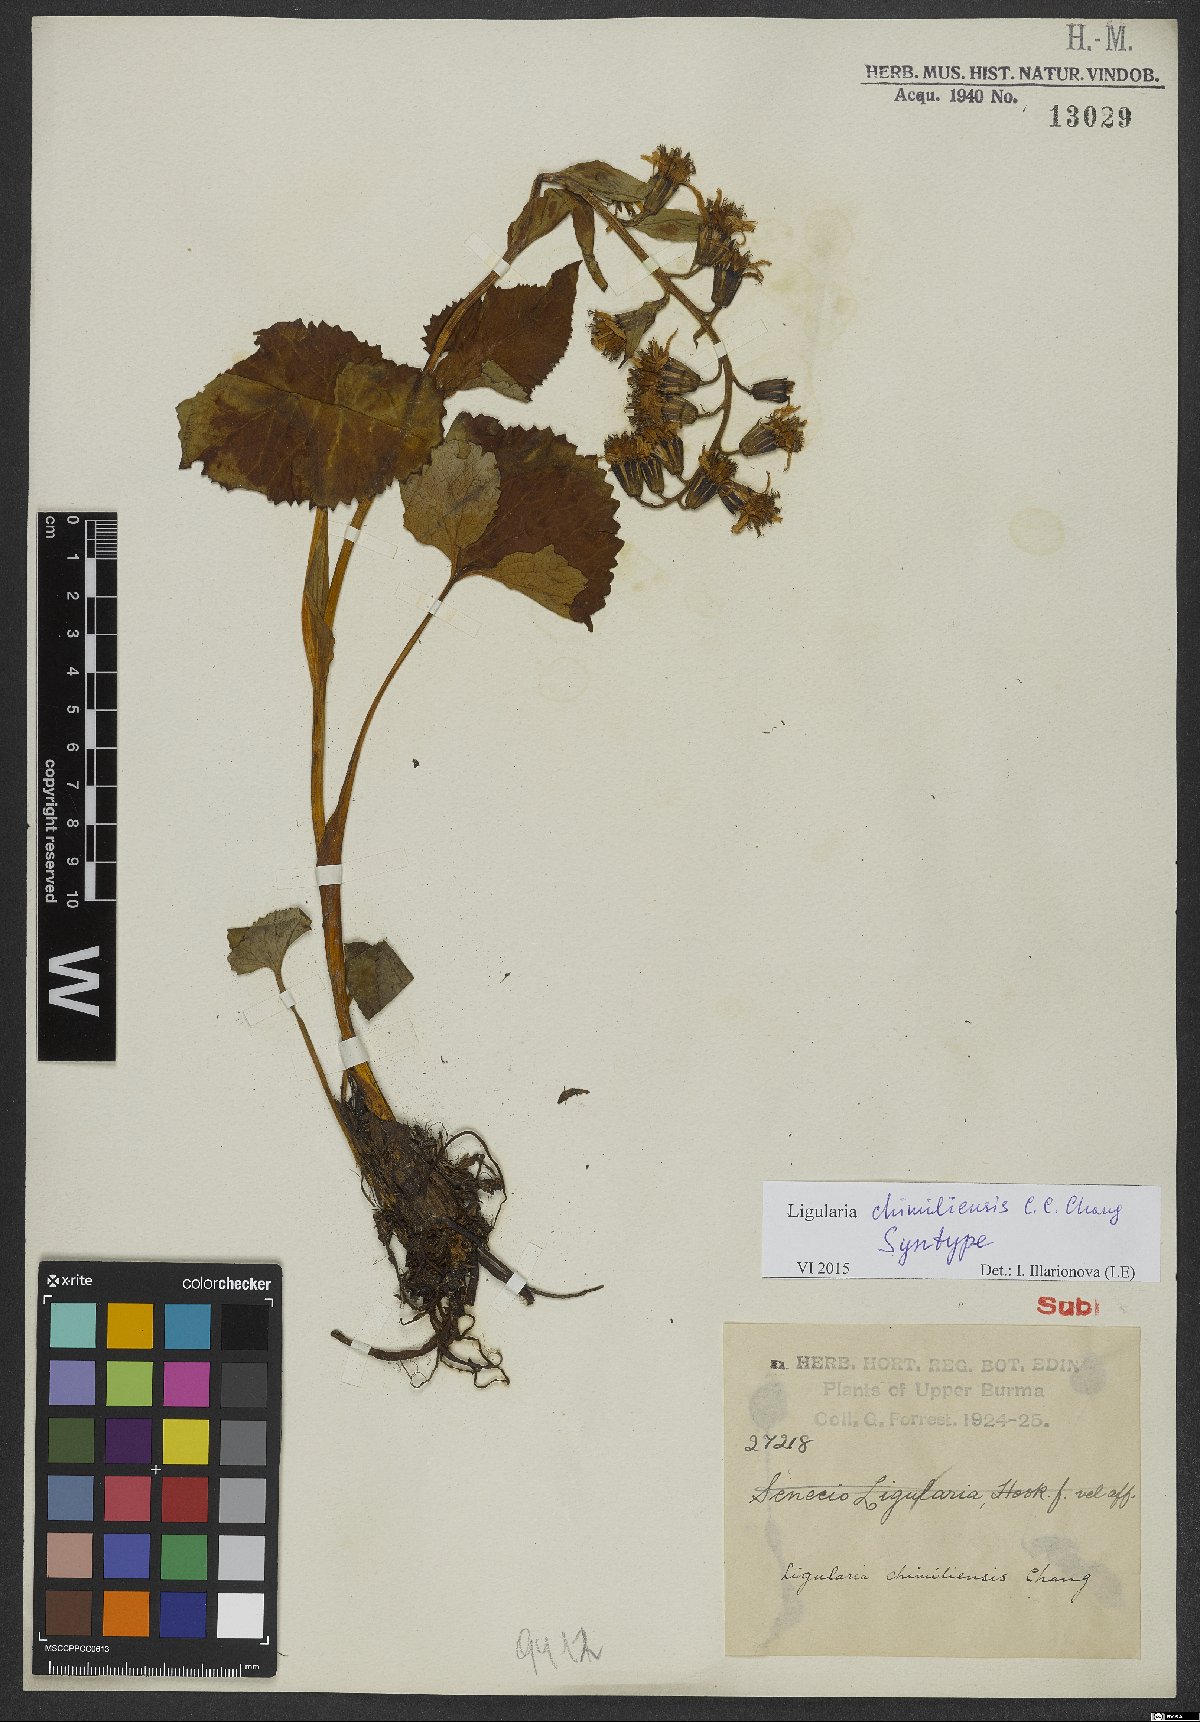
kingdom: Plantae
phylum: Tracheophyta
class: Magnoliopsida
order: Asterales
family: Asteraceae
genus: Ligularia
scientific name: Ligularia chimiliensis
